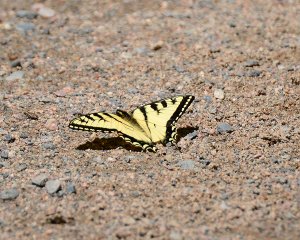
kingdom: Animalia
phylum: Arthropoda
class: Insecta
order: Lepidoptera
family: Papilionidae
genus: Pterourus
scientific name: Pterourus canadensis
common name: Canadian Tiger Swallowtail
